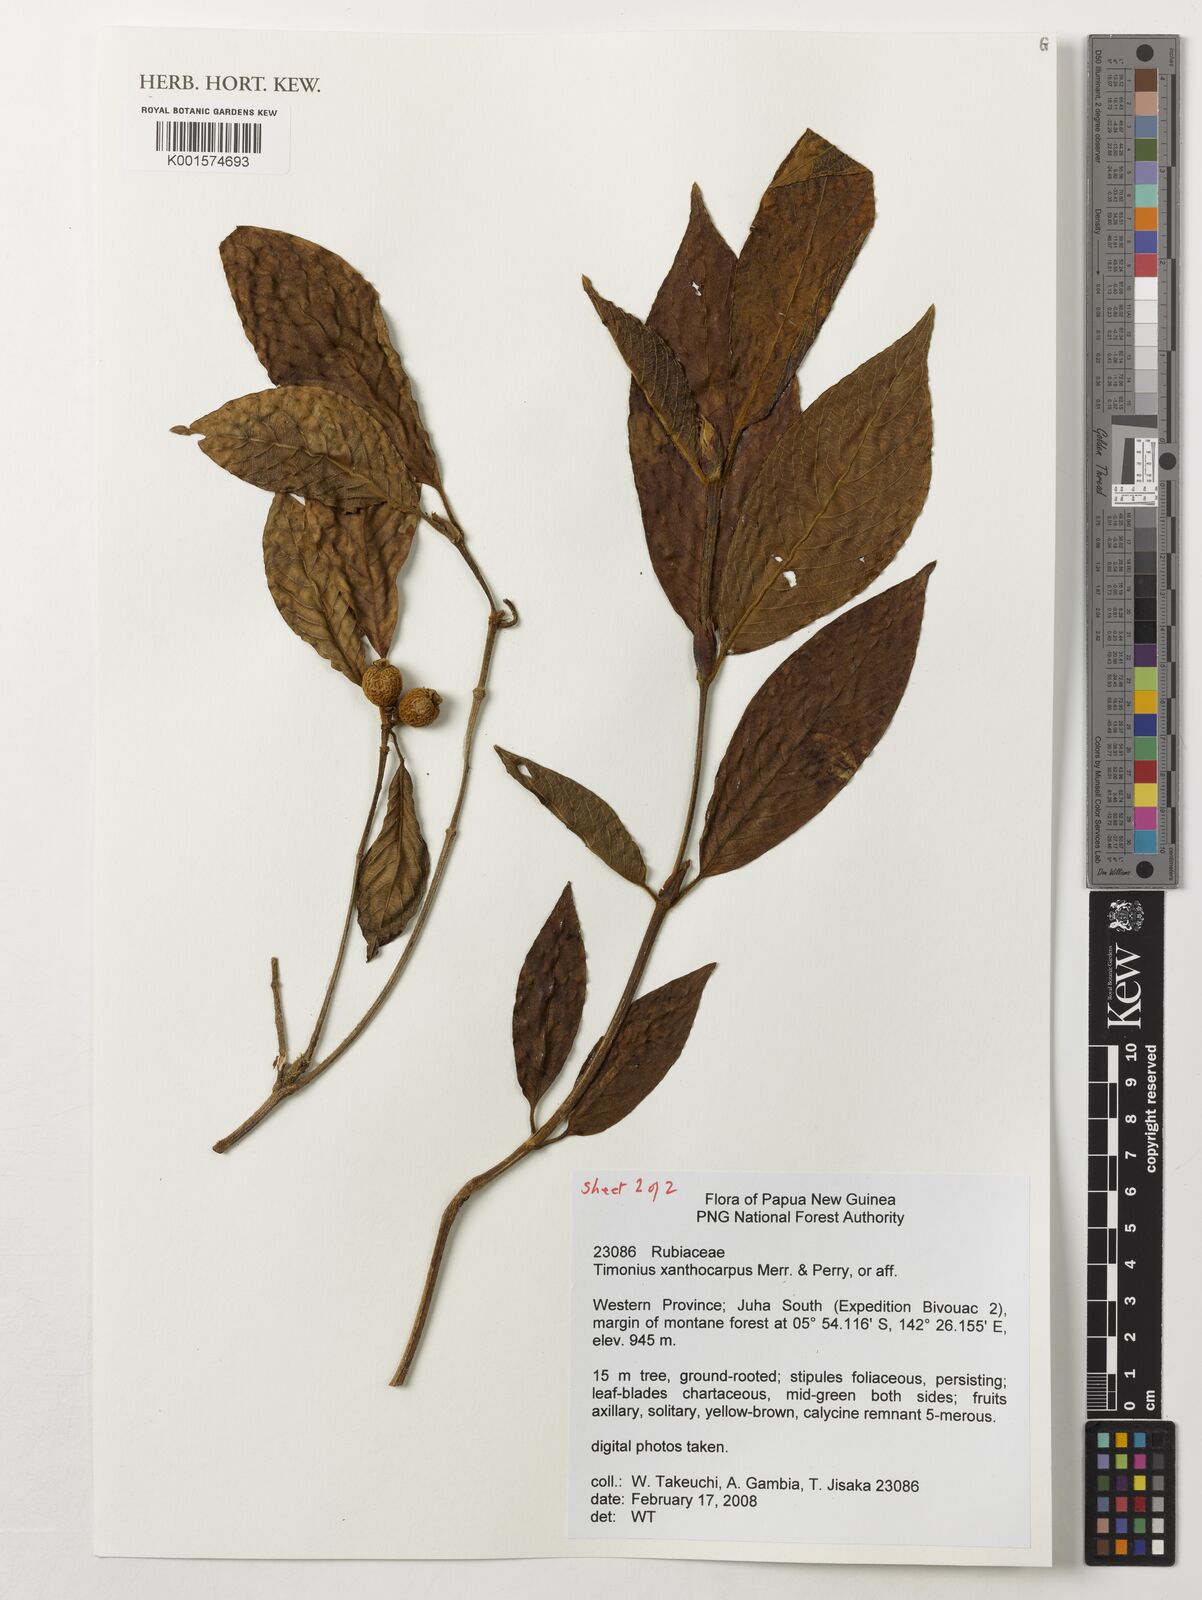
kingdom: Plantae
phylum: Tracheophyta
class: Magnoliopsida
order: Gentianales
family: Rubiaceae
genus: Timonius
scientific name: Timonius xanthocarpus
